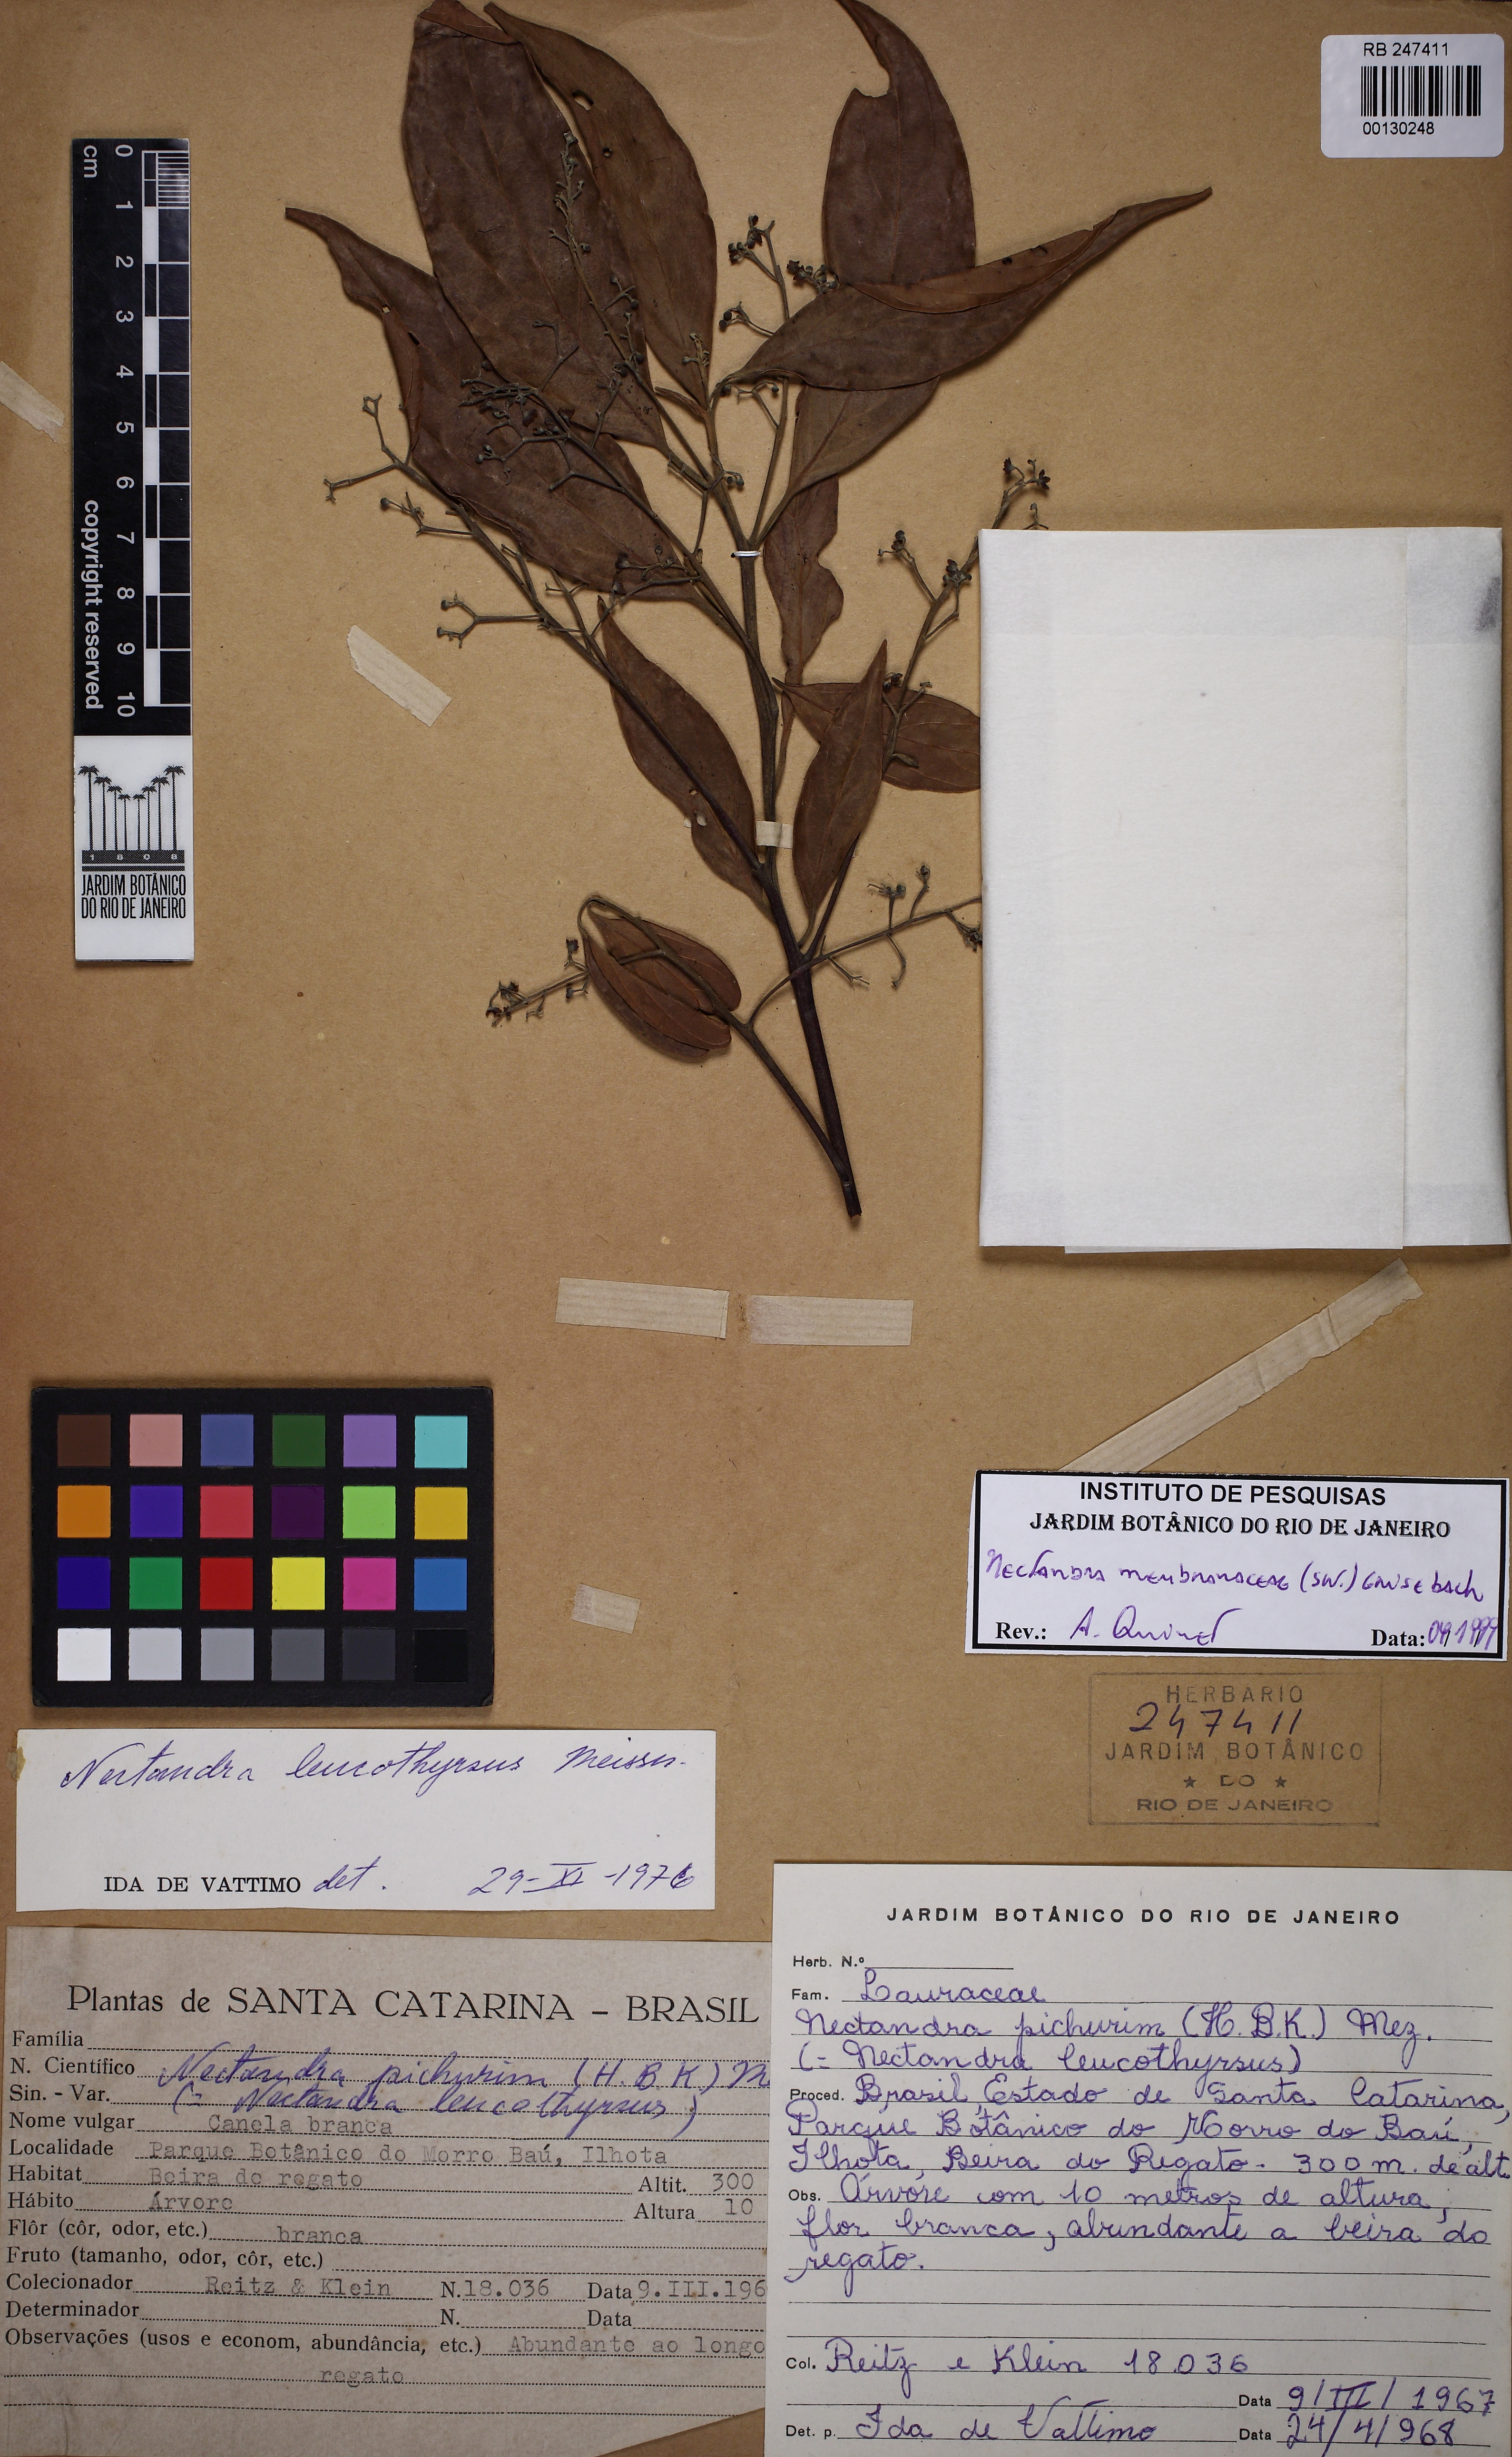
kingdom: Plantae
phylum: Tracheophyta
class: Magnoliopsida
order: Laurales
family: Lauraceae
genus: Nectandra
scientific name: Nectandra membranacea
